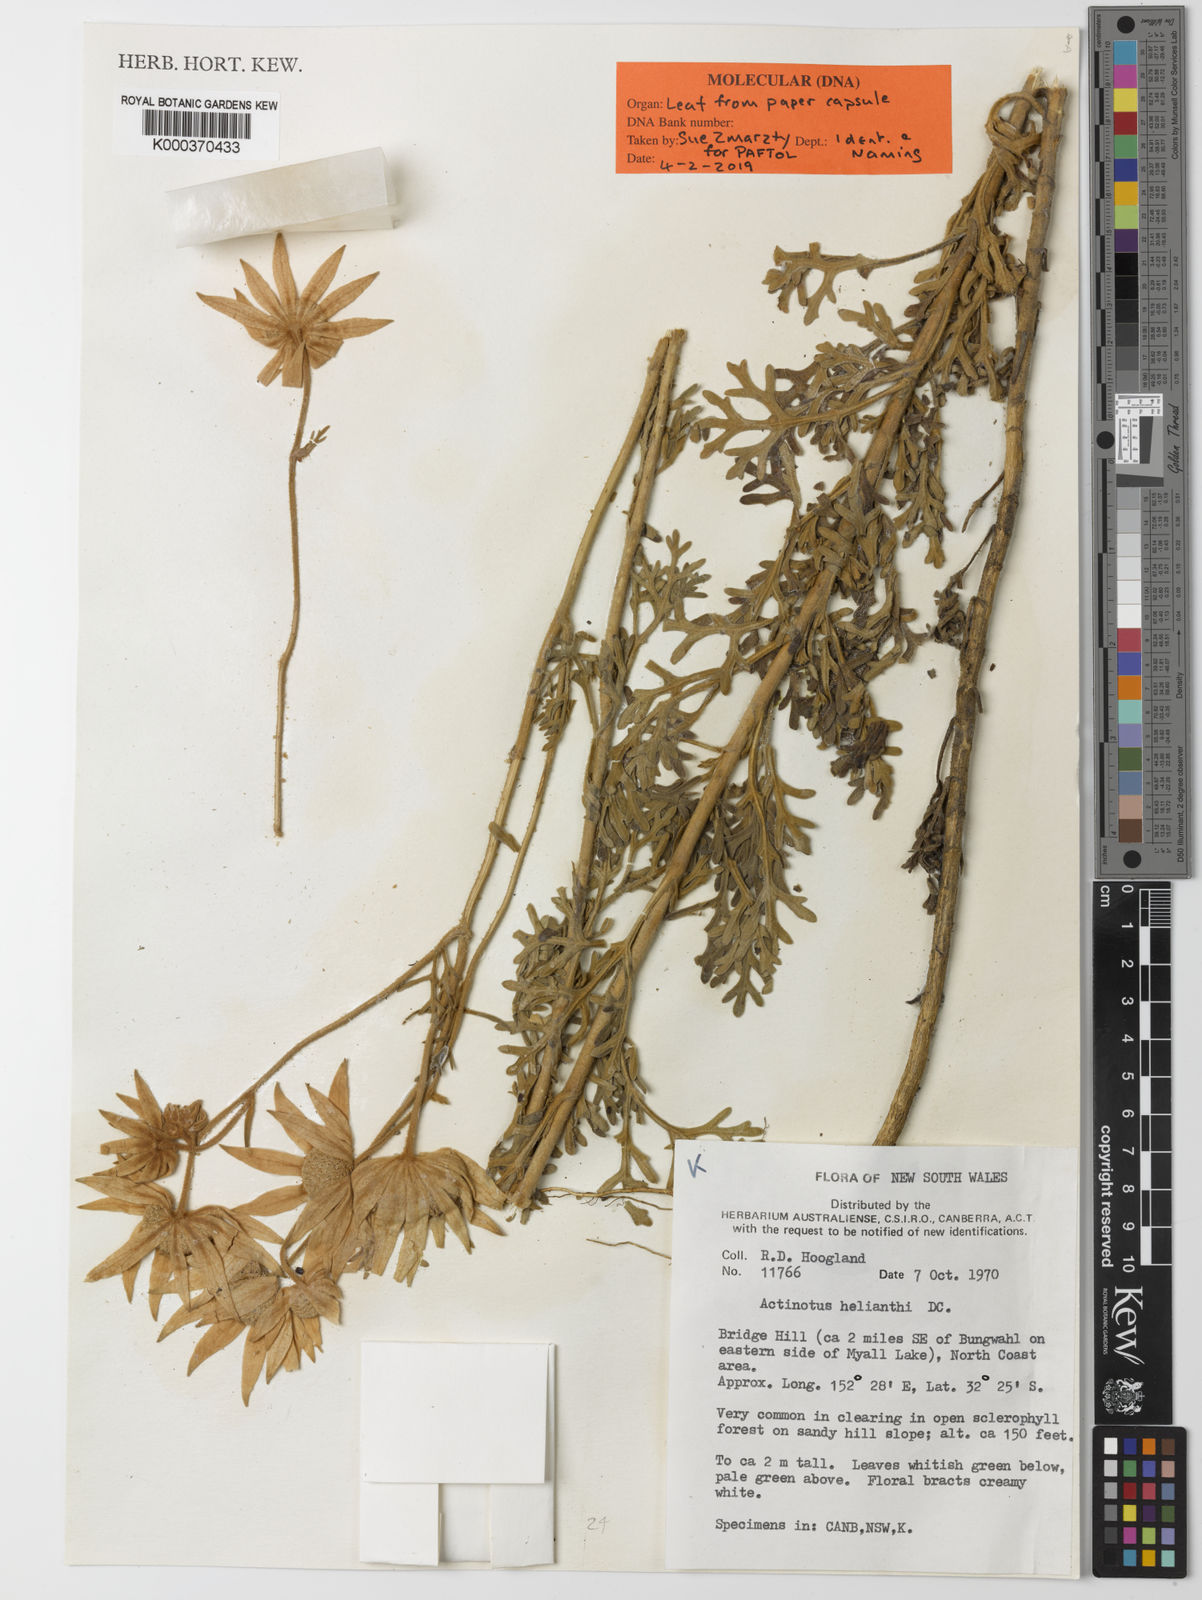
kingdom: Plantae
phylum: Tracheophyta
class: Magnoliopsida
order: Apiales
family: Apiaceae
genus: Actinotus
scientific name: Actinotus
